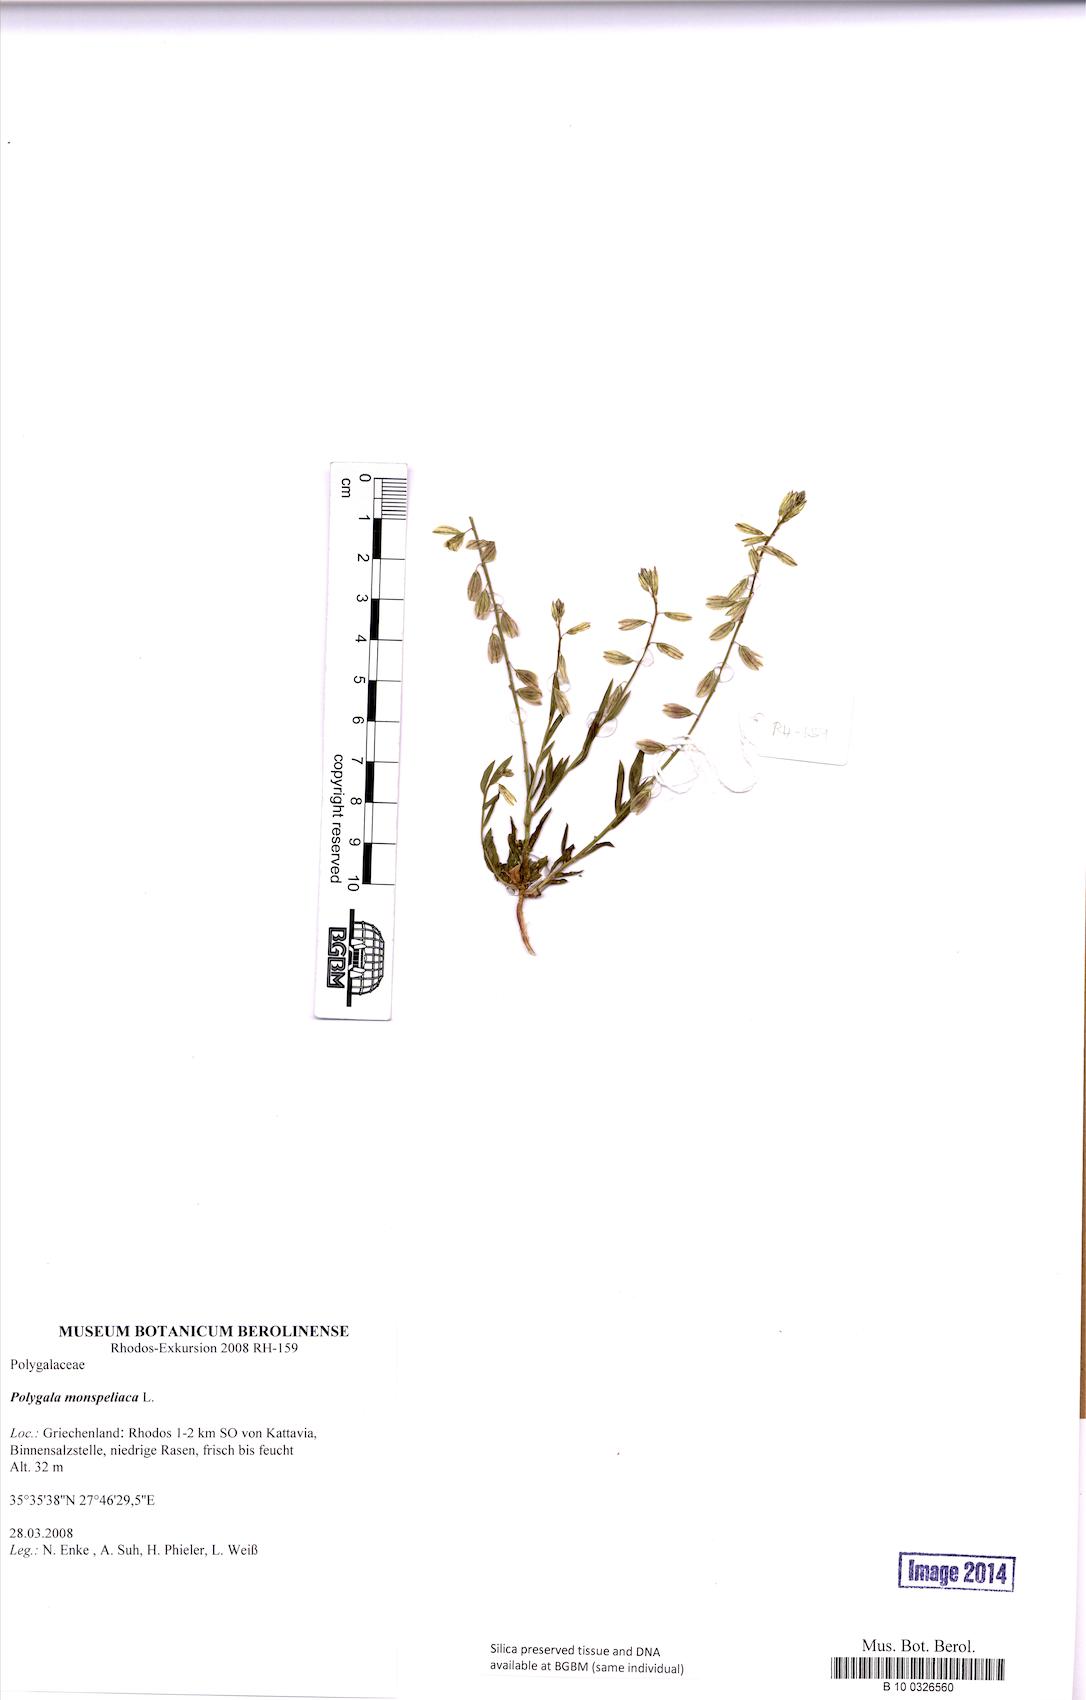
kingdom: Plantae
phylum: Tracheophyta
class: Magnoliopsida
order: Fabales
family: Polygalaceae
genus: Polygala
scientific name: Polygala monspeliaca
